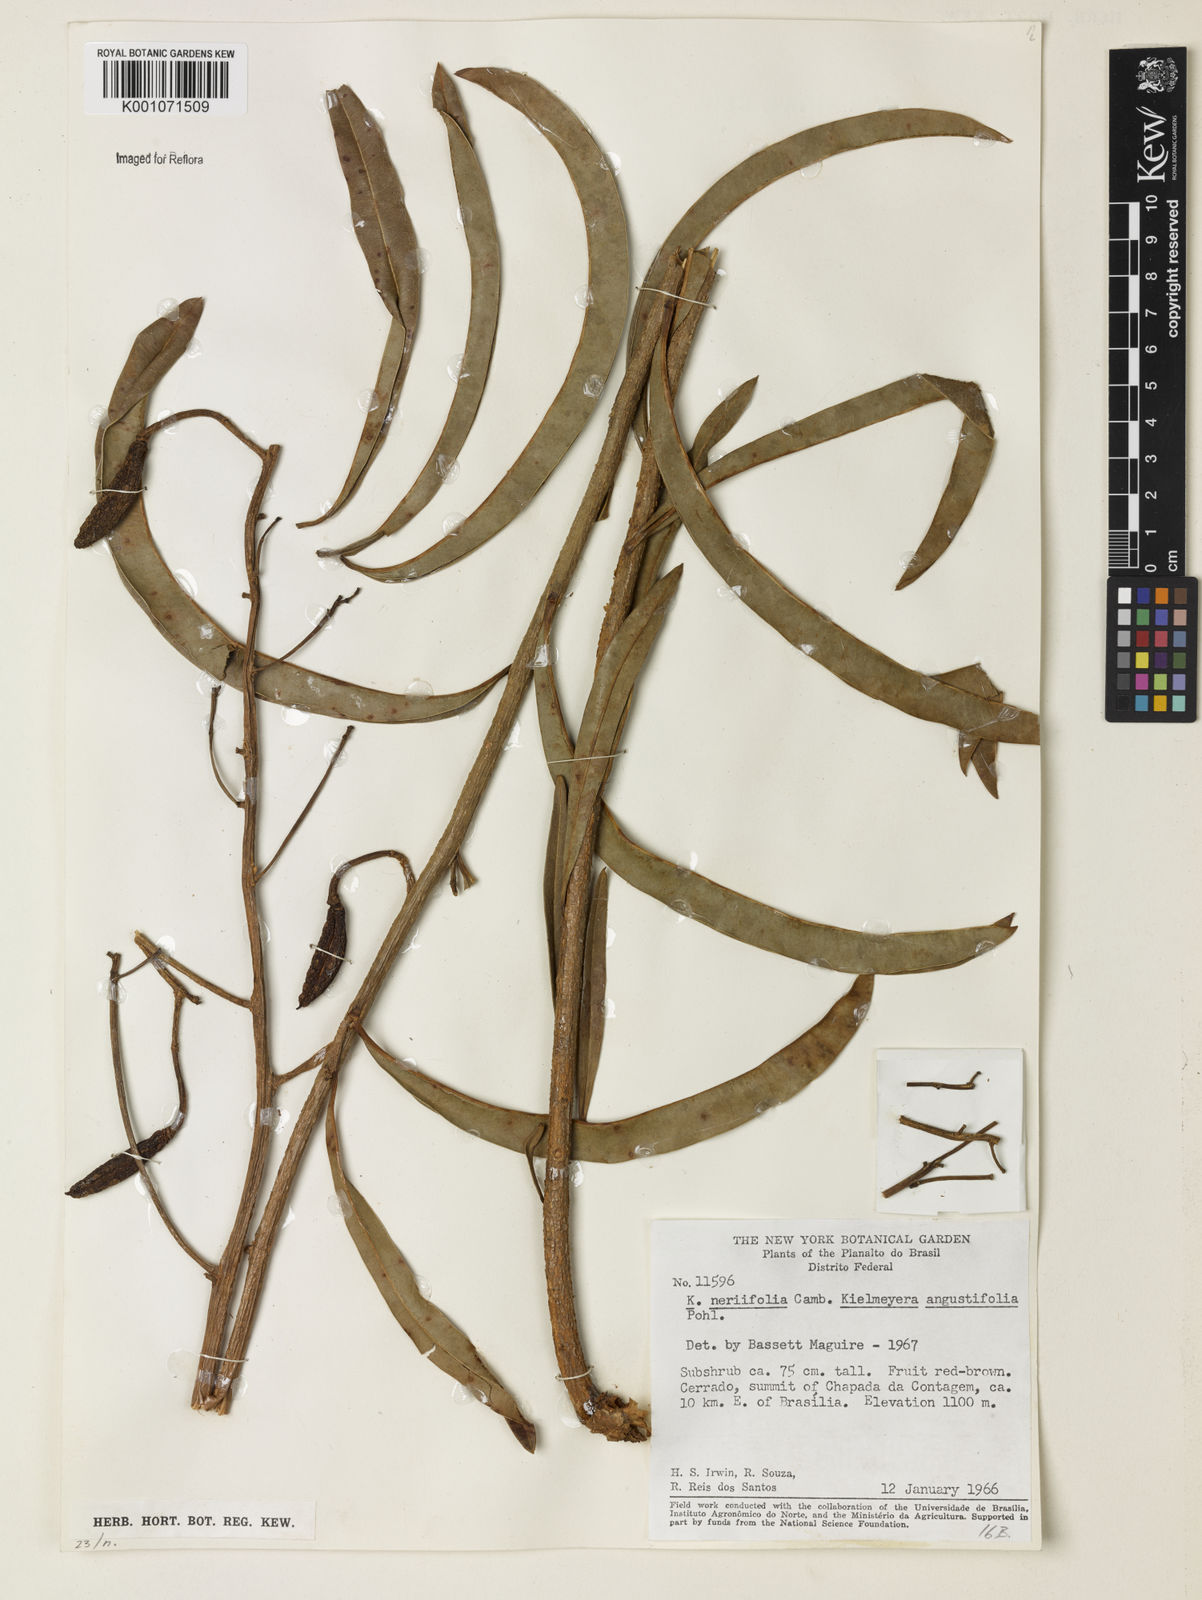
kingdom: Plantae
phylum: Tracheophyta
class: Magnoliopsida
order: Malpighiales
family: Calophyllaceae
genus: Kielmeyera
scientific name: Kielmeyera abdita
